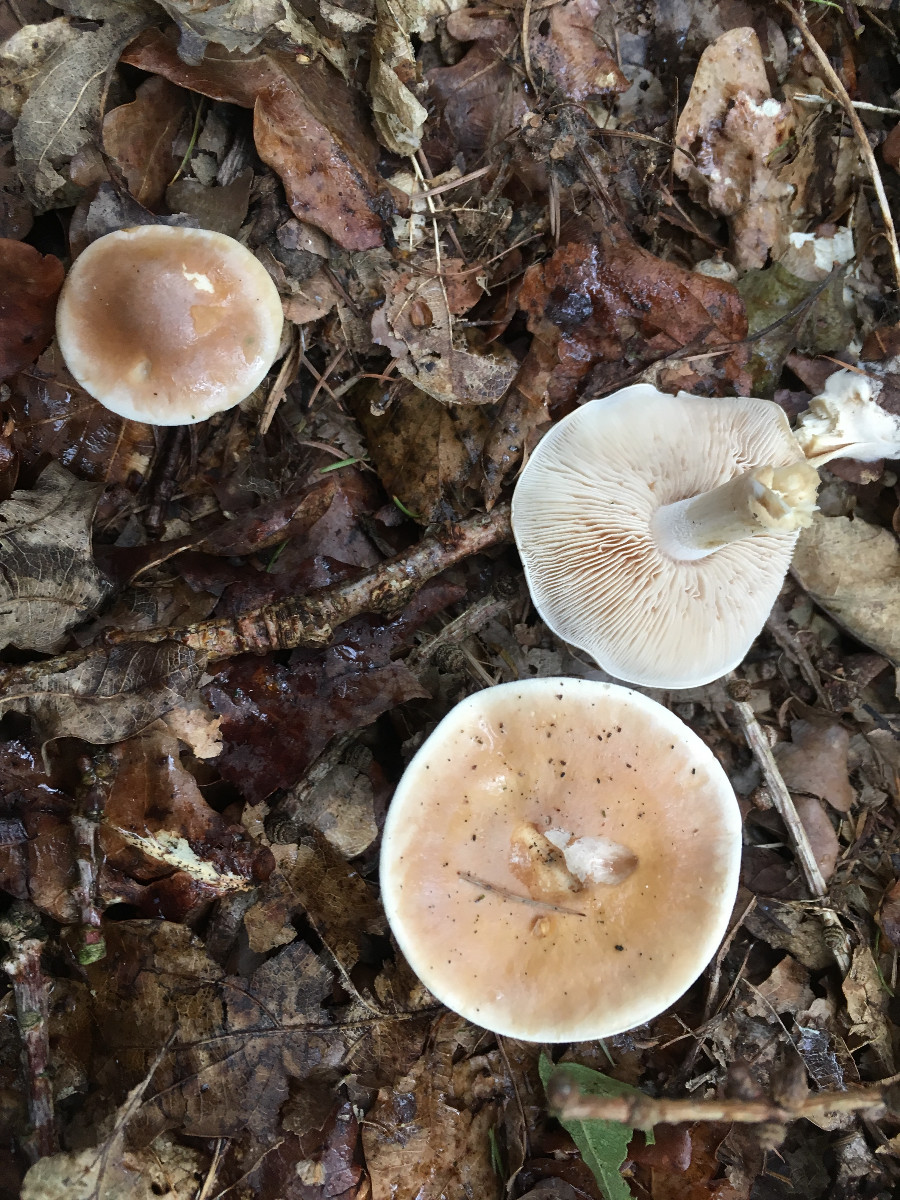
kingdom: Fungi
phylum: Basidiomycota
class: Agaricomycetes
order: Agaricales
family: Hymenogastraceae
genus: Hebeloma
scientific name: Hebeloma
